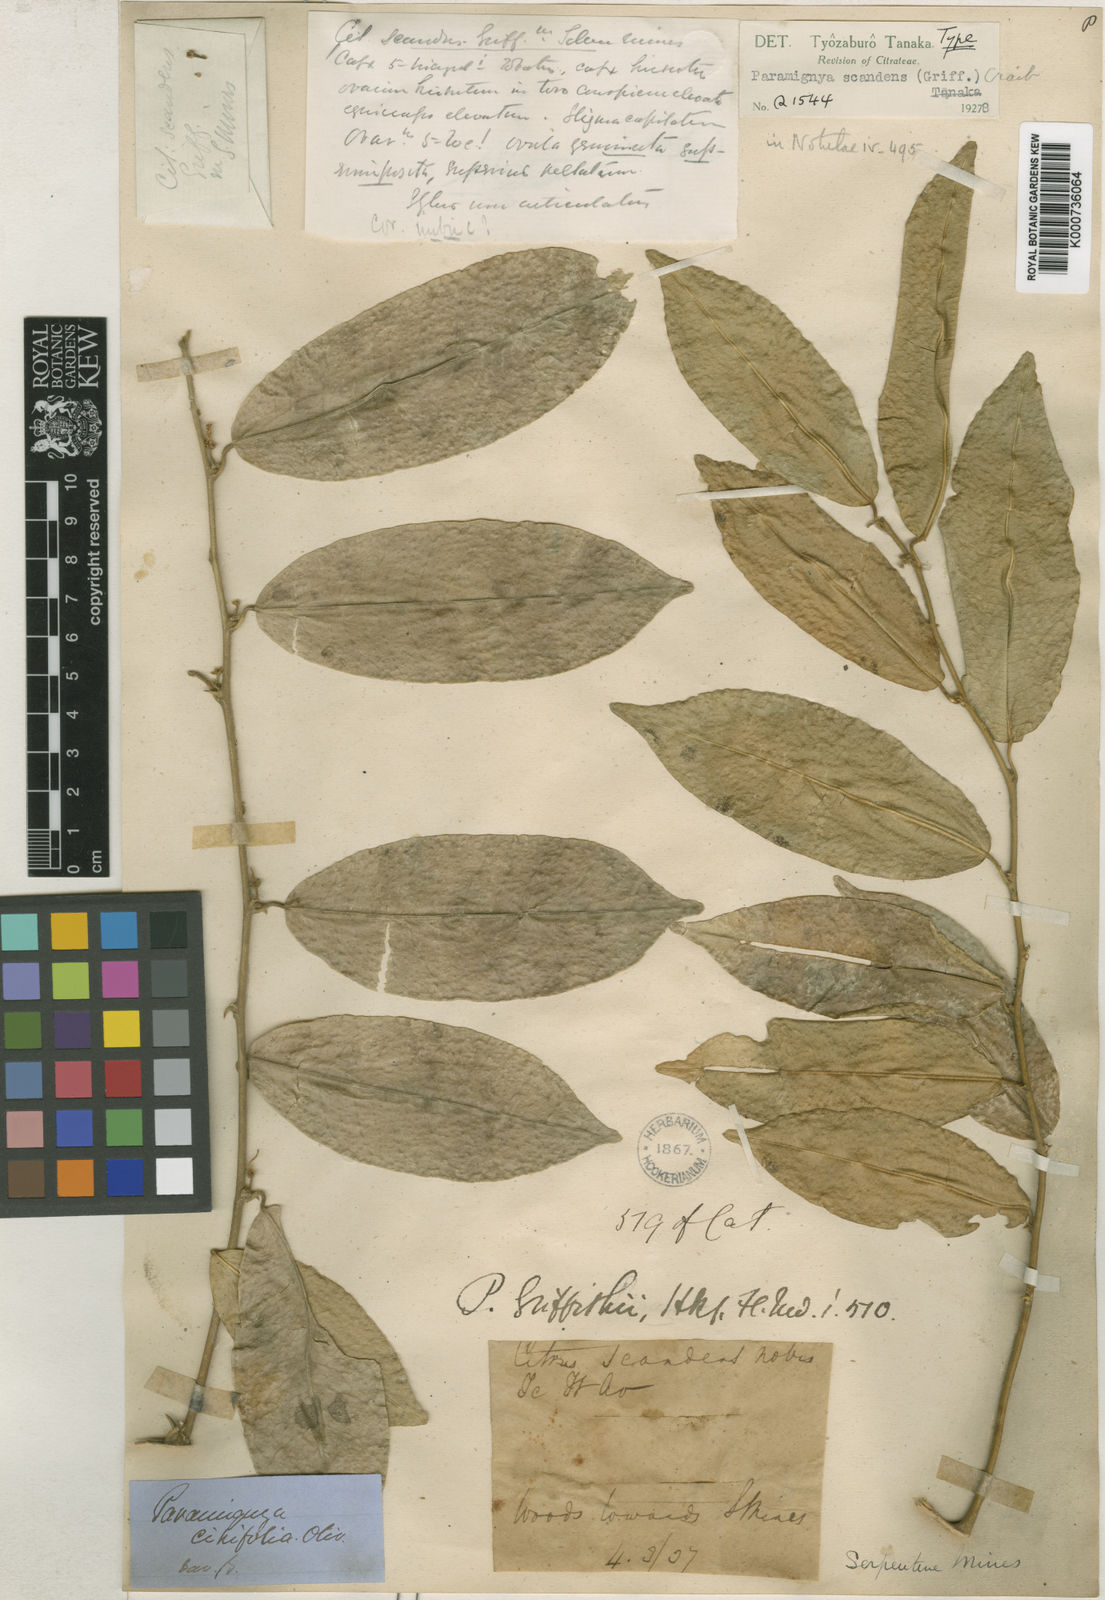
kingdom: Plantae
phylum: Tracheophyta
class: Magnoliopsida
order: Sapindales
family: Rutaceae
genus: Paramignya
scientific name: Paramignya scandens
